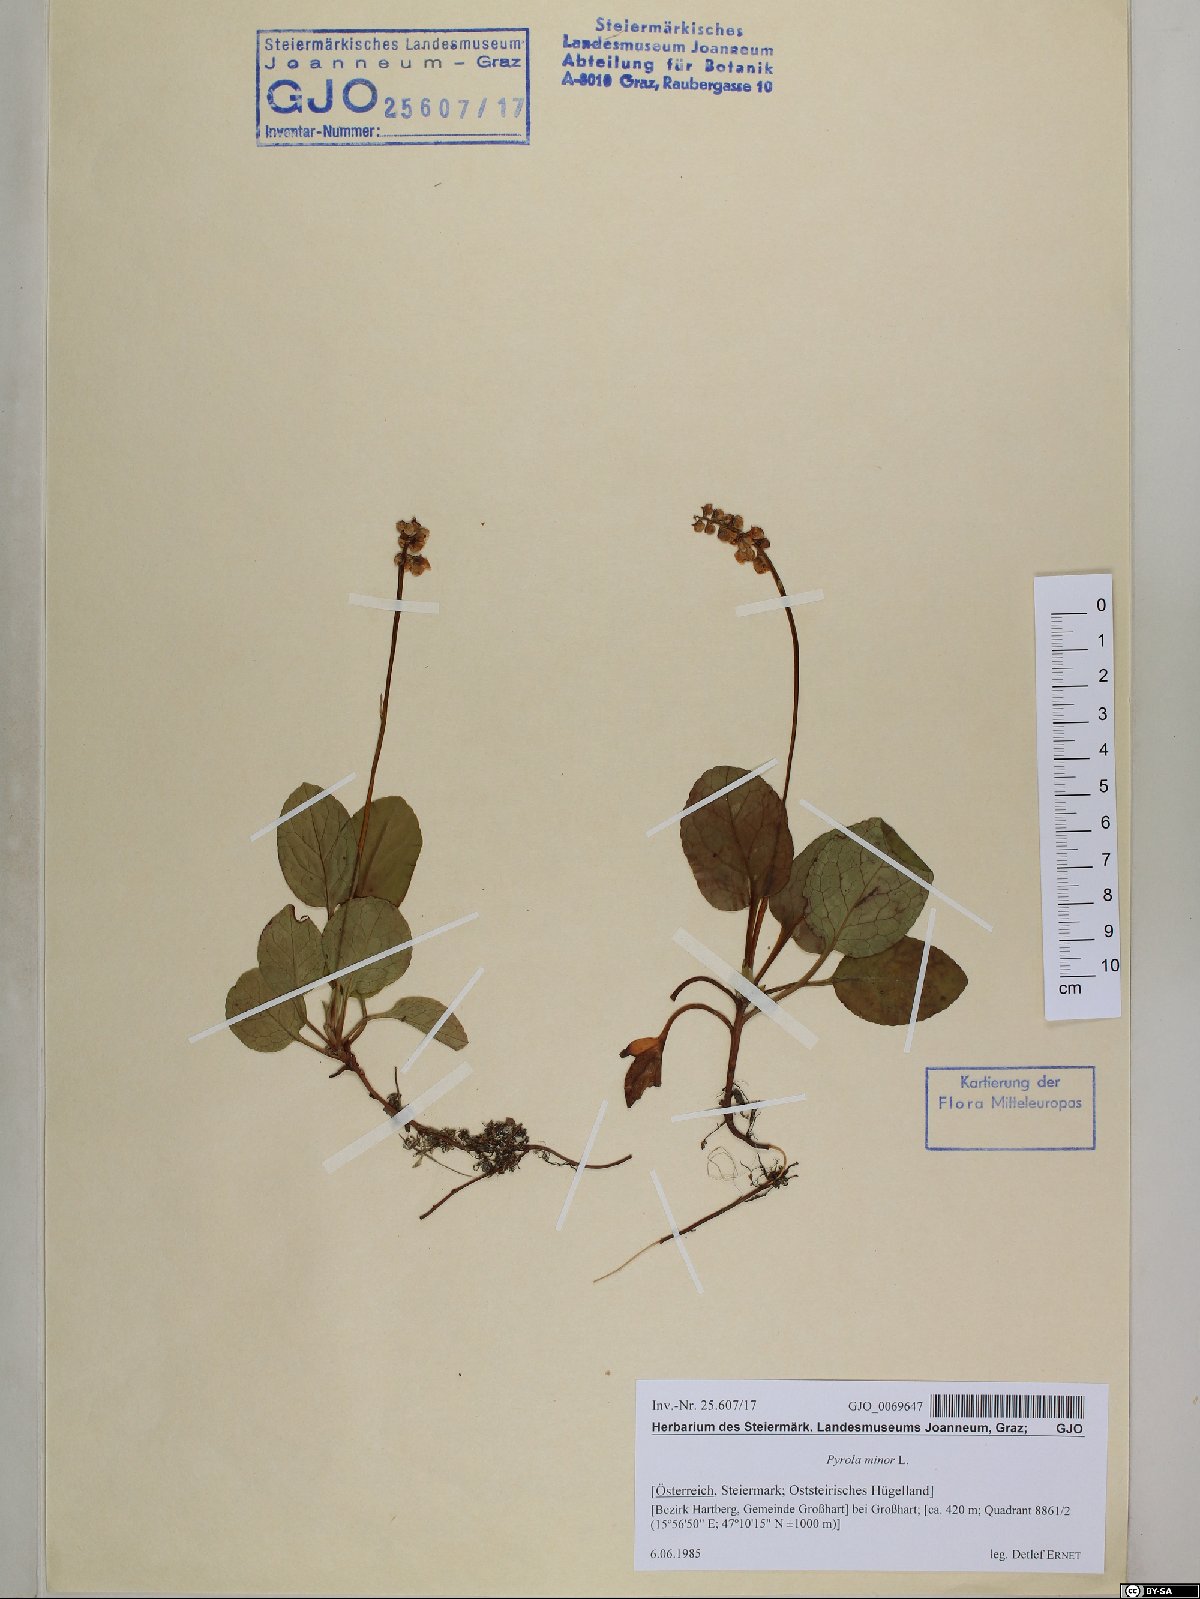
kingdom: Plantae
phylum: Tracheophyta
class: Magnoliopsida
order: Ericales
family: Ericaceae
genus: Pyrola
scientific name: Pyrola minor
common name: Common wintergreen
